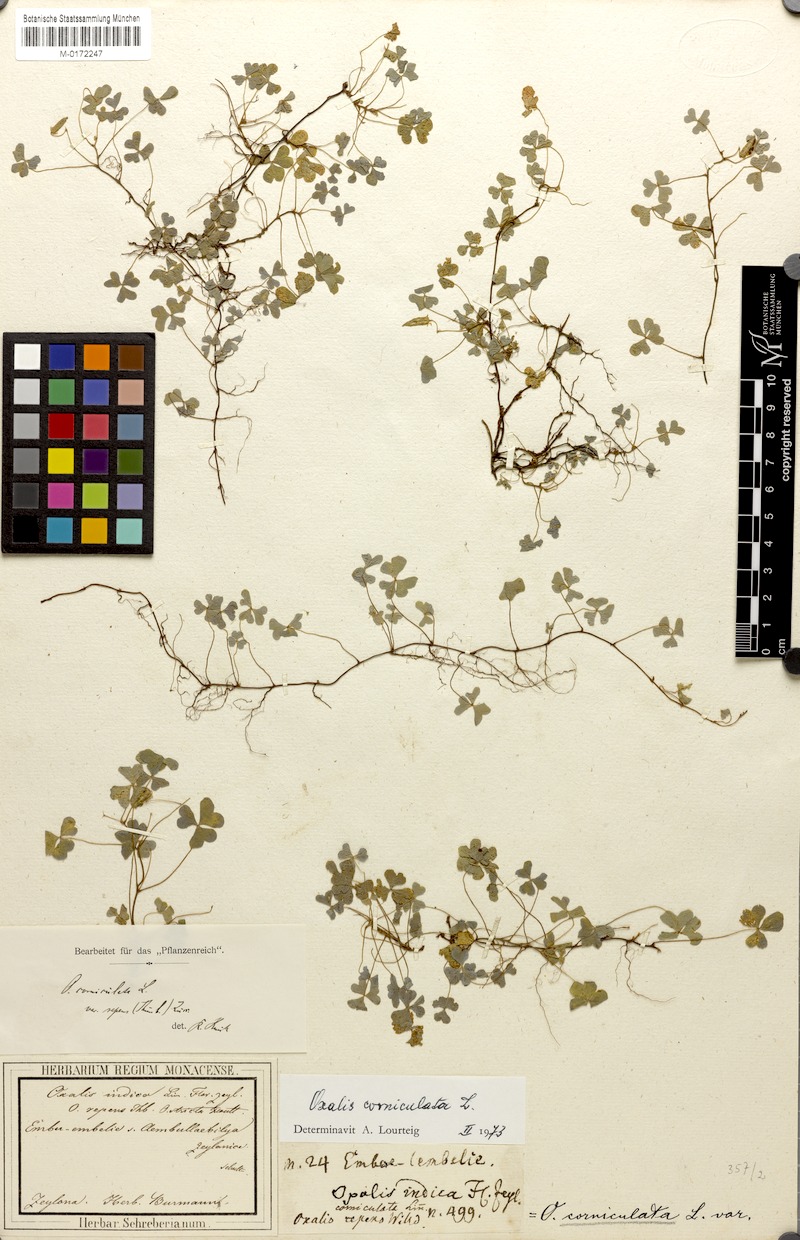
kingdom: Plantae
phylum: Tracheophyta
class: Magnoliopsida
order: Oxalidales
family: Oxalidaceae
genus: Oxalis
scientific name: Oxalis corniculata
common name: Procumbent yellow-sorrel
